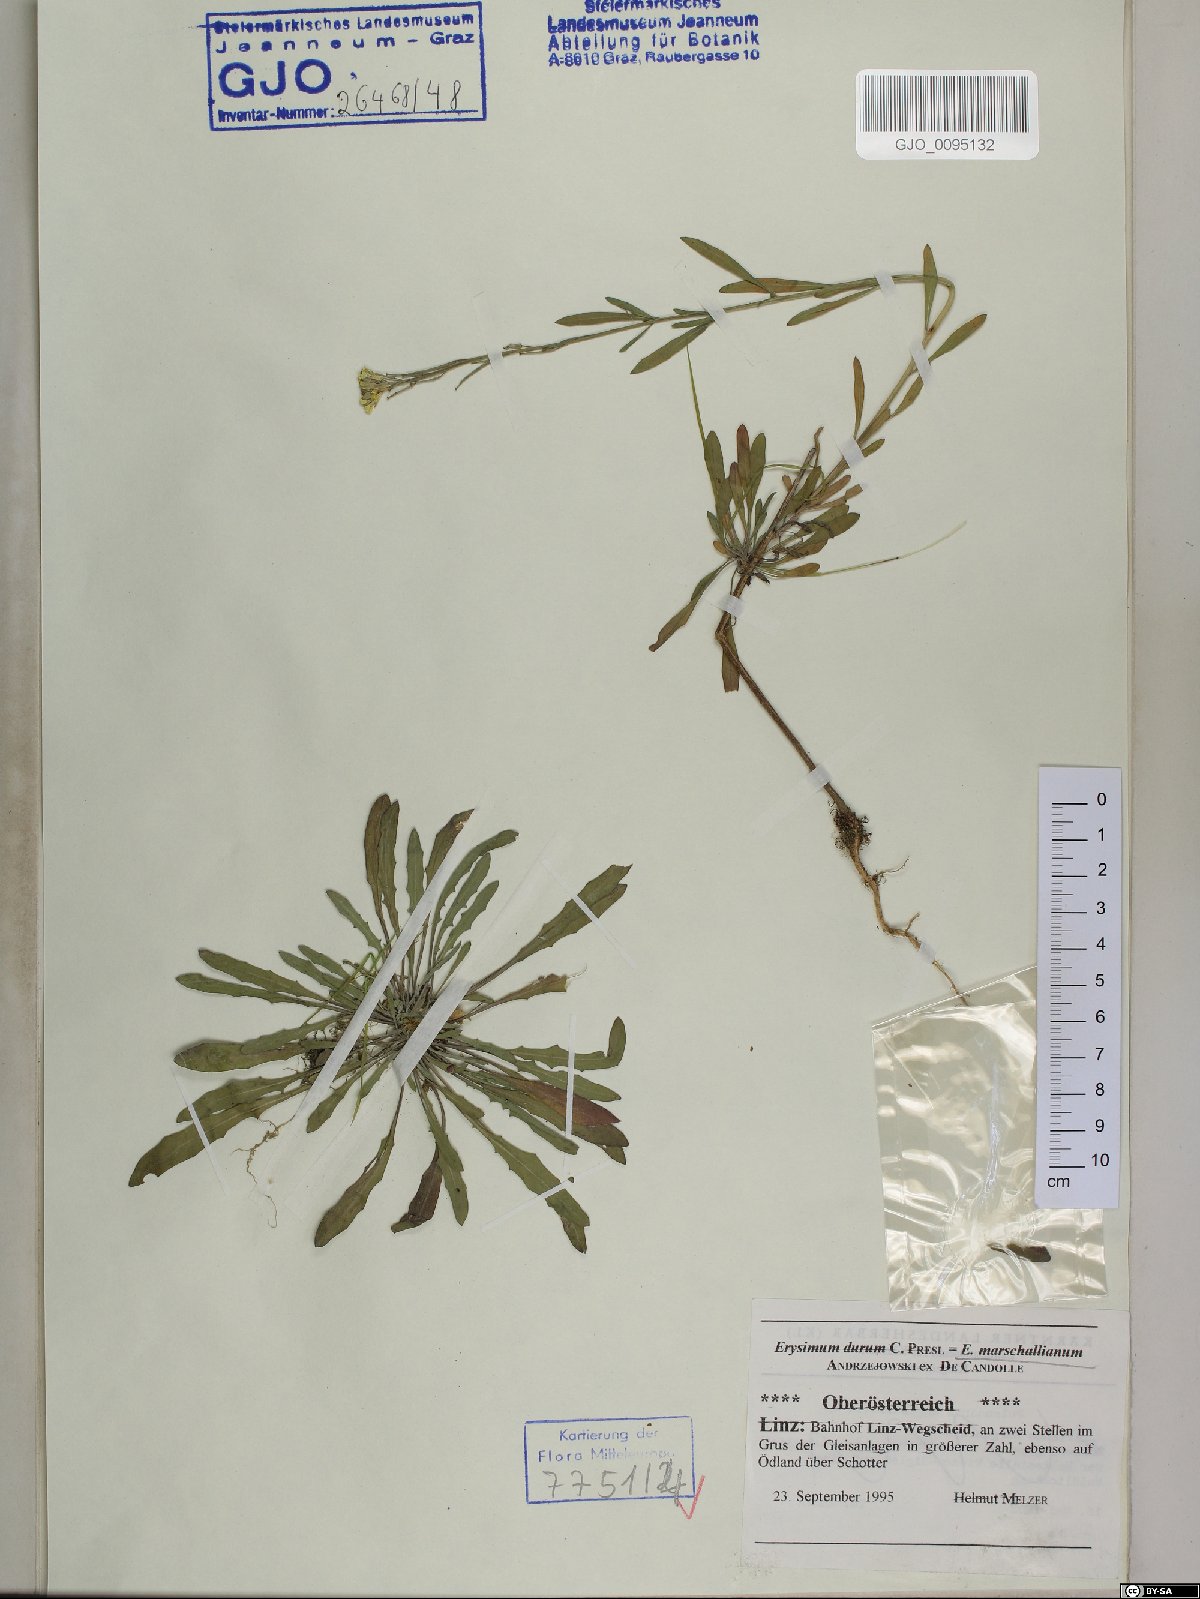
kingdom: Plantae
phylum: Tracheophyta
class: Magnoliopsida
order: Brassicales
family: Brassicaceae
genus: Erysimum
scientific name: Erysimum marschallianum
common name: Hard wallflower
